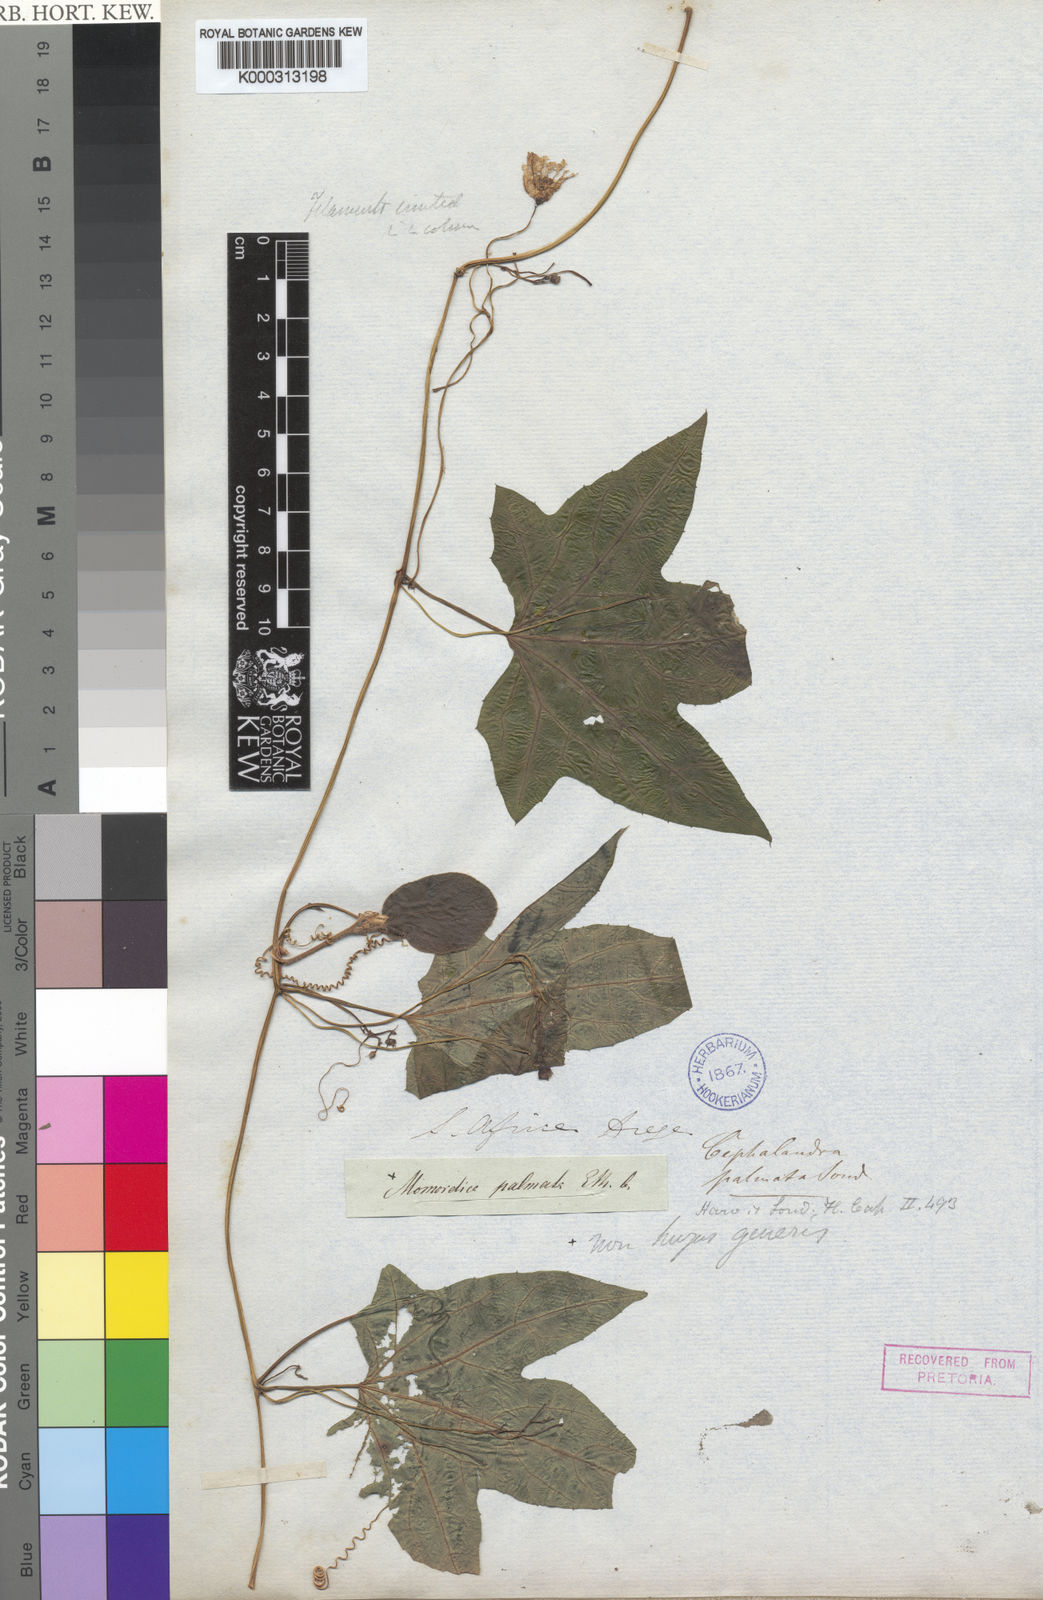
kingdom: Plantae
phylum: Tracheophyta
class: Magnoliopsida
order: Cucurbitales
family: Cucurbitaceae
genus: Coccinia
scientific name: Coccinia palmata
